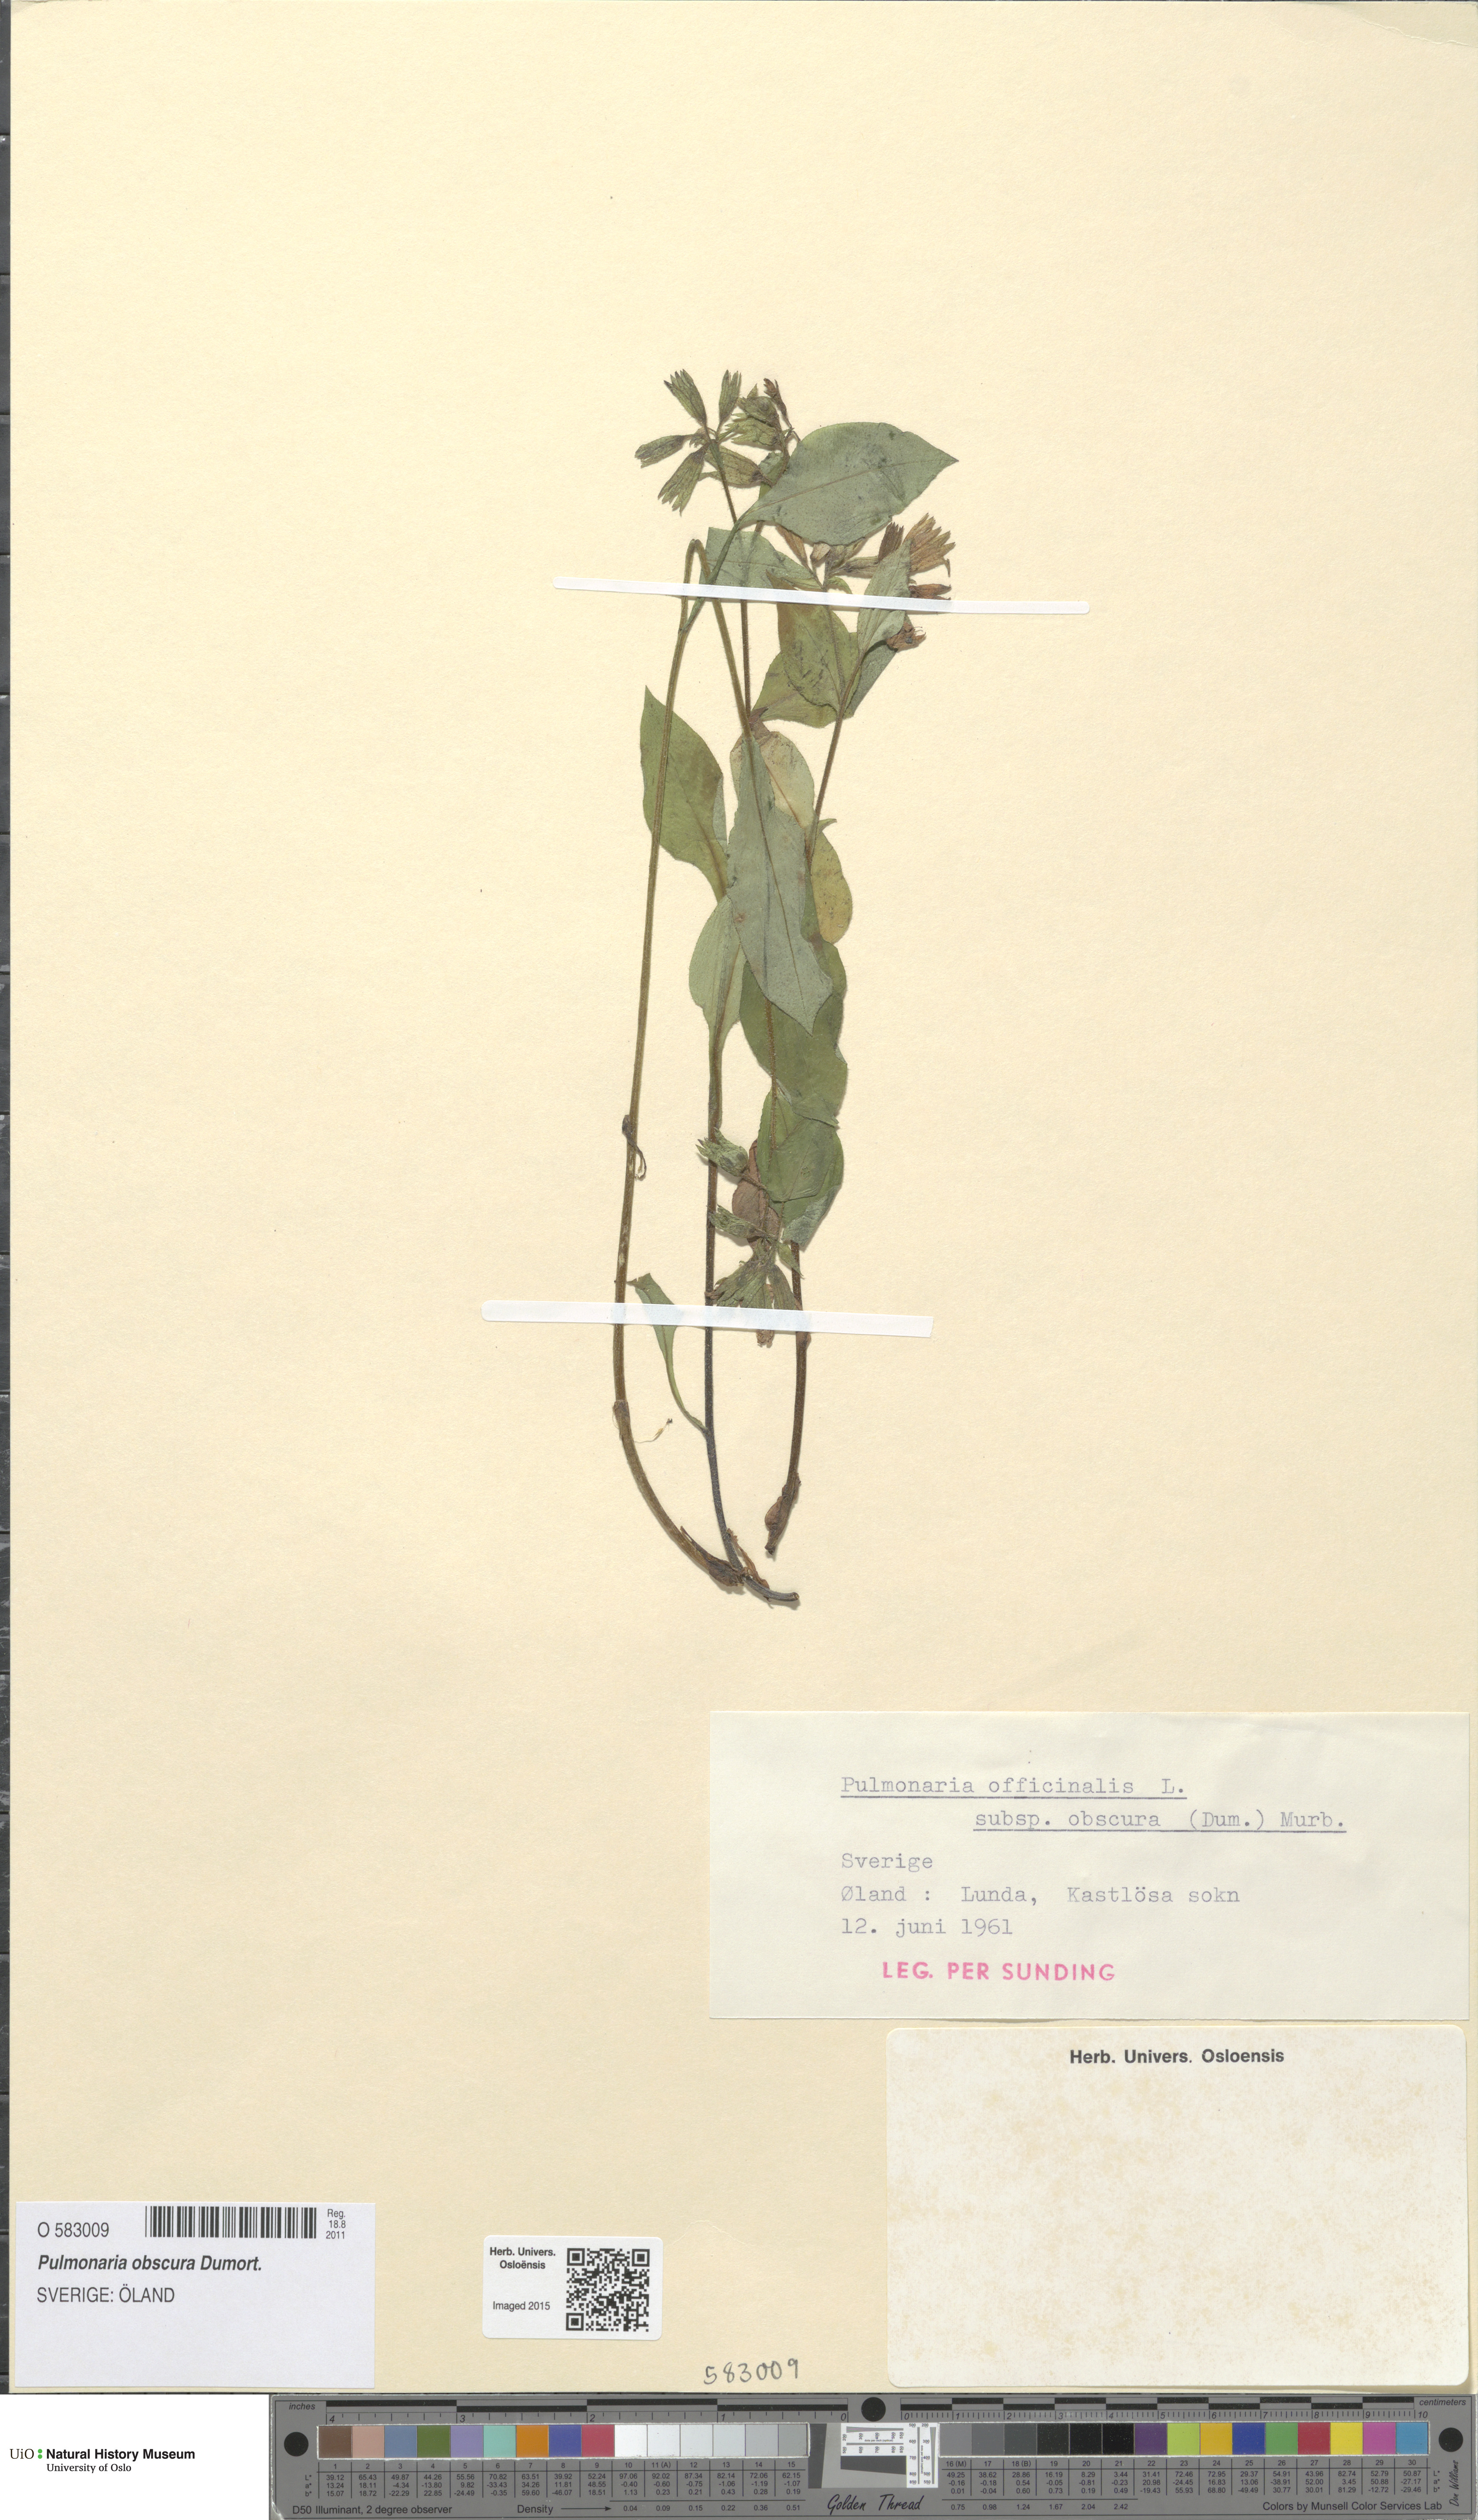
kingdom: Plantae
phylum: Tracheophyta
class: Magnoliopsida
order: Boraginales
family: Boraginaceae
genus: Pulmonaria
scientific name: Pulmonaria obscura
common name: Suffolk lungwort
